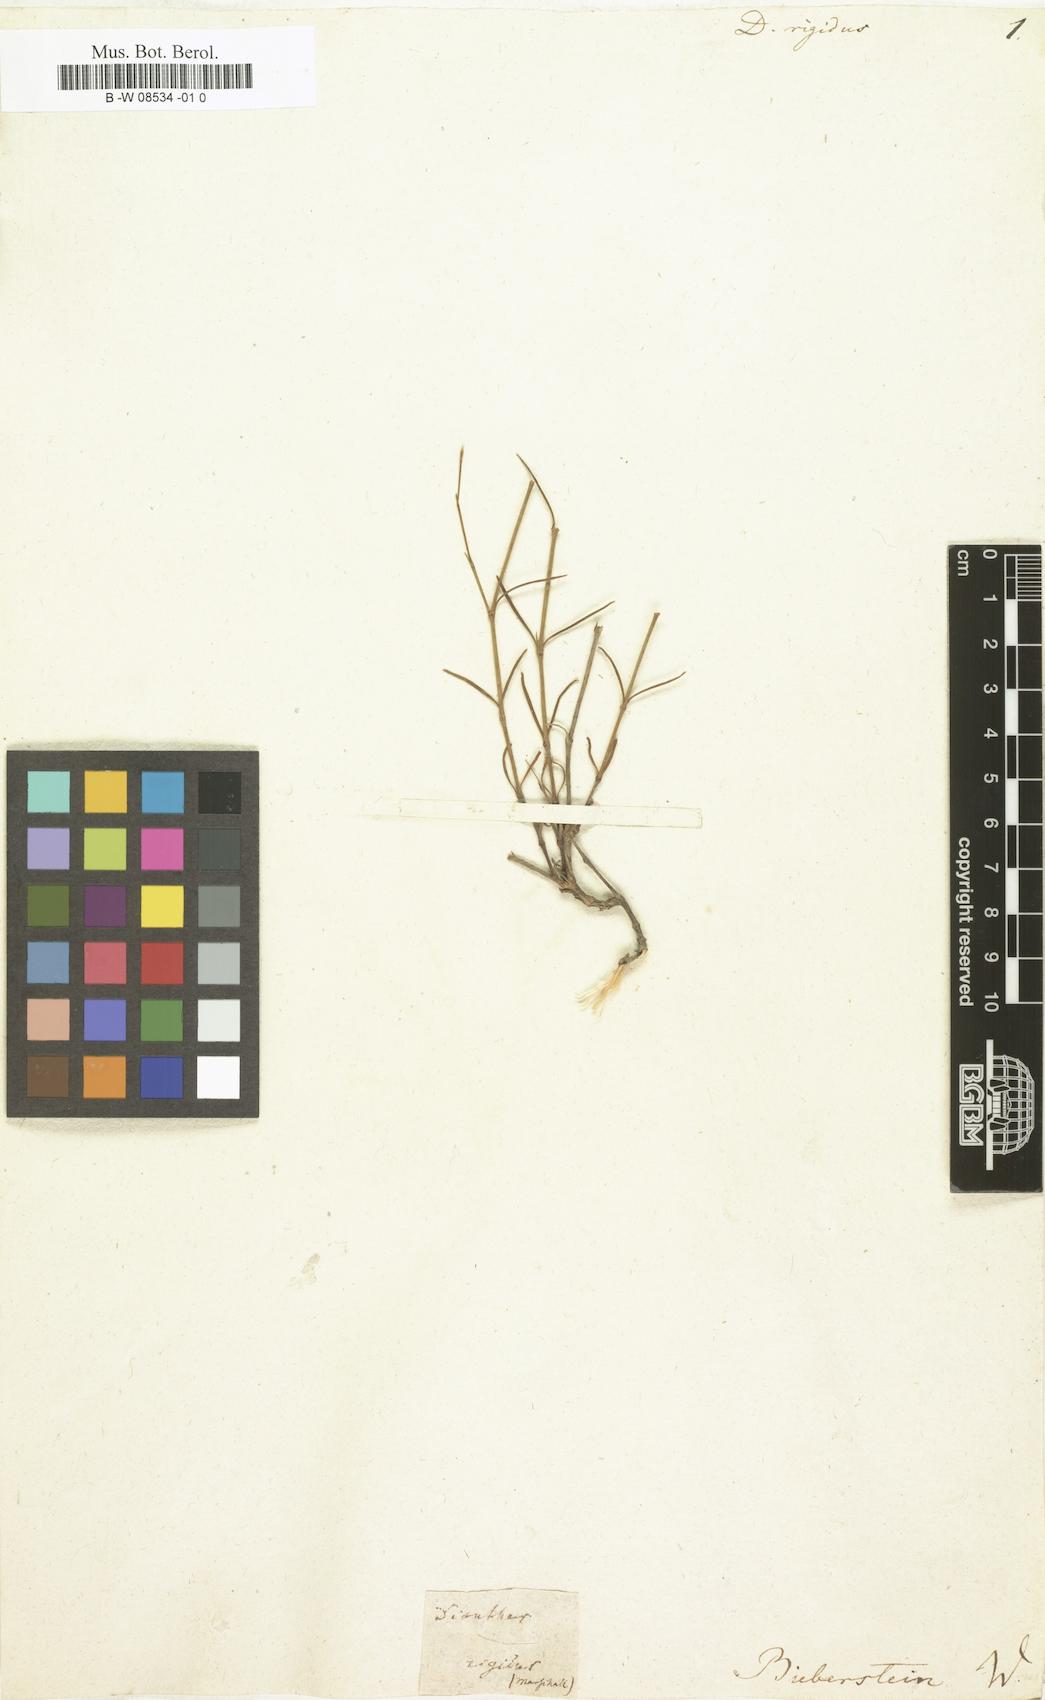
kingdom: Plantae
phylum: Tracheophyta
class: Magnoliopsida
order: Caryophyllales
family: Caryophyllaceae
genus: Dianthus
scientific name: Dianthus rigidus
